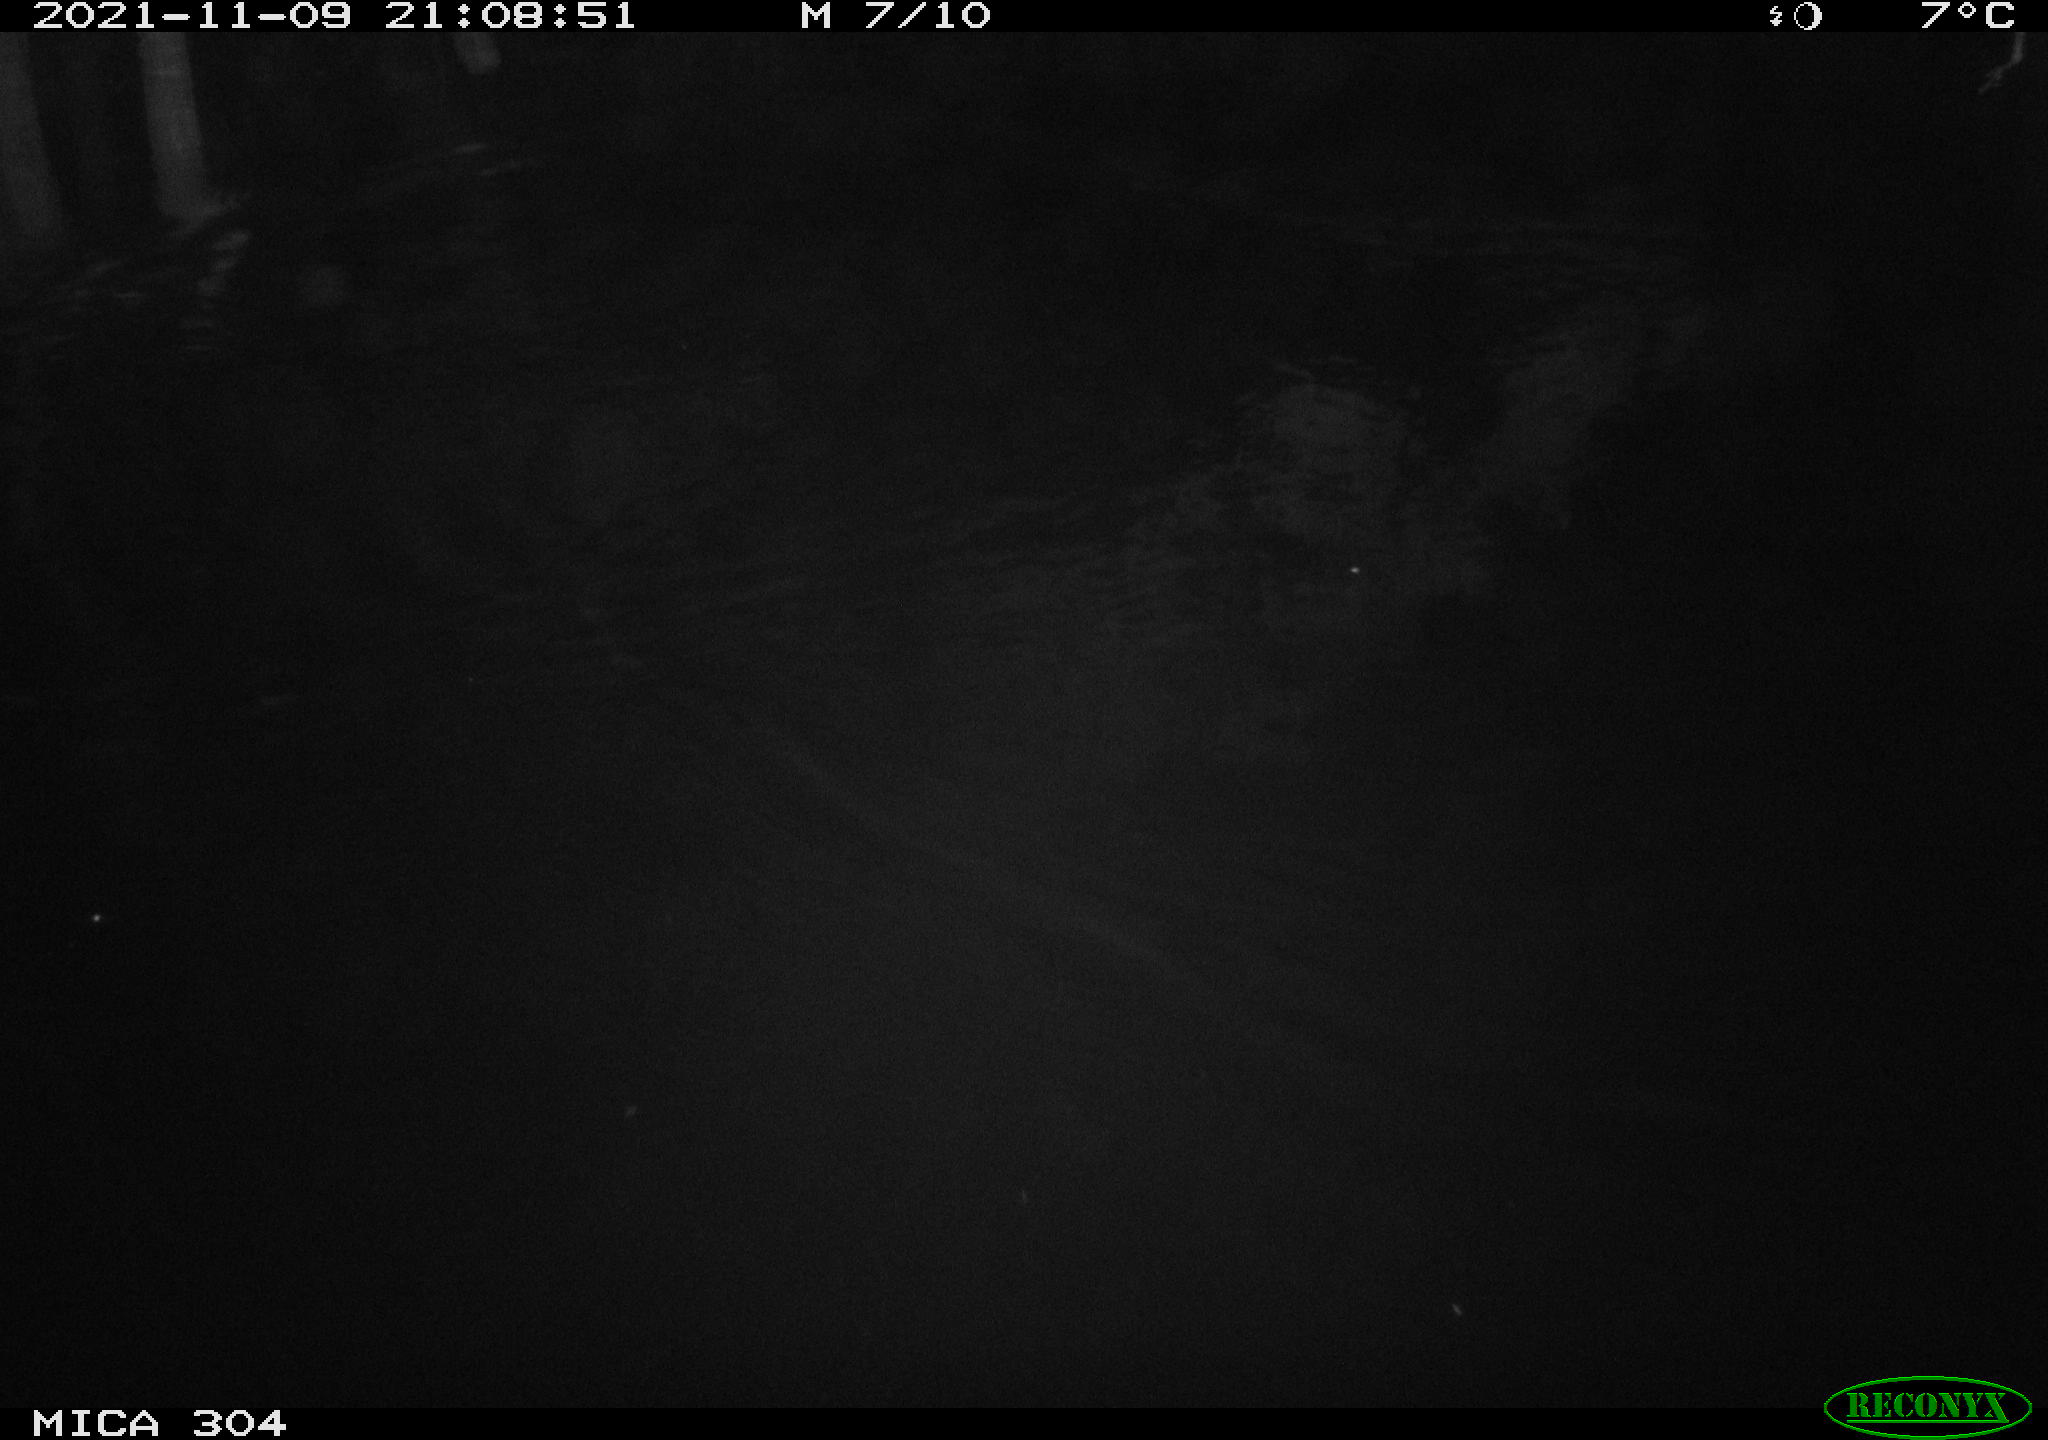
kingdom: Animalia
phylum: Chordata
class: Mammalia
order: Rodentia
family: Muridae
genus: Rattus
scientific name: Rattus norvegicus
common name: Brown rat
